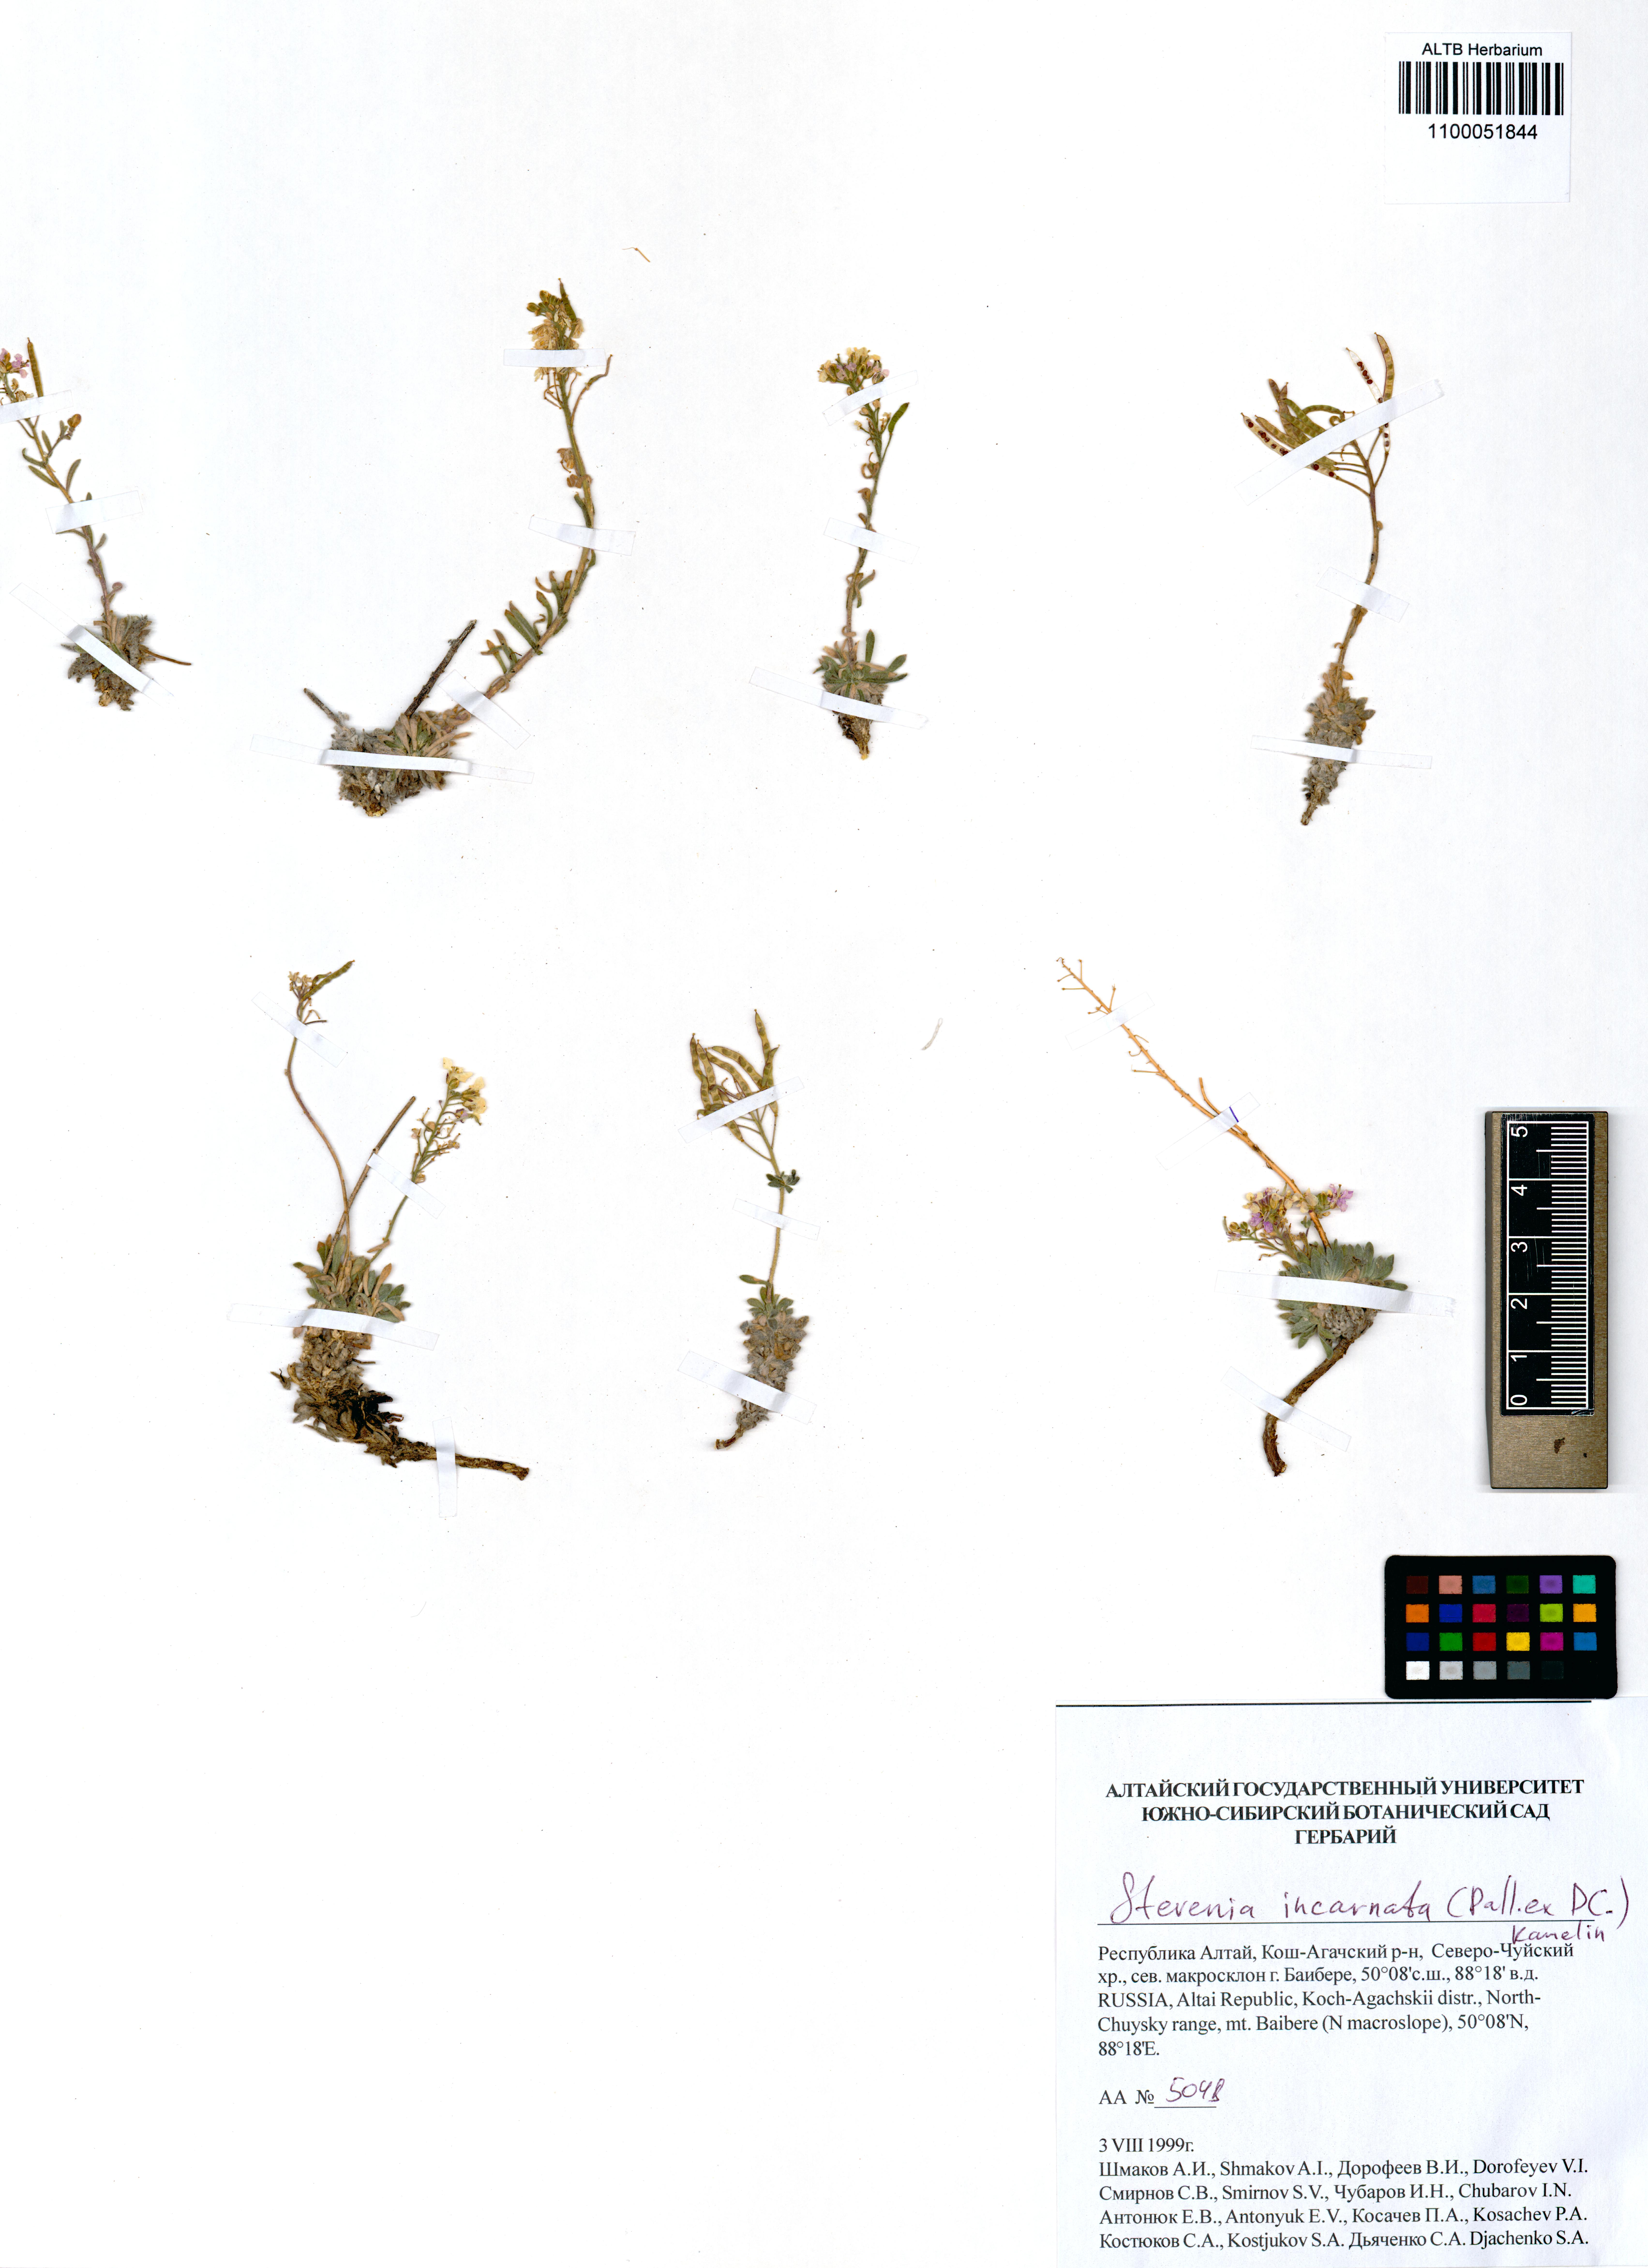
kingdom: Plantae
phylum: Tracheophyta
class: Magnoliopsida
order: Brassicales
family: Brassicaceae
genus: Stevenia
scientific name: Stevenia incarnata
